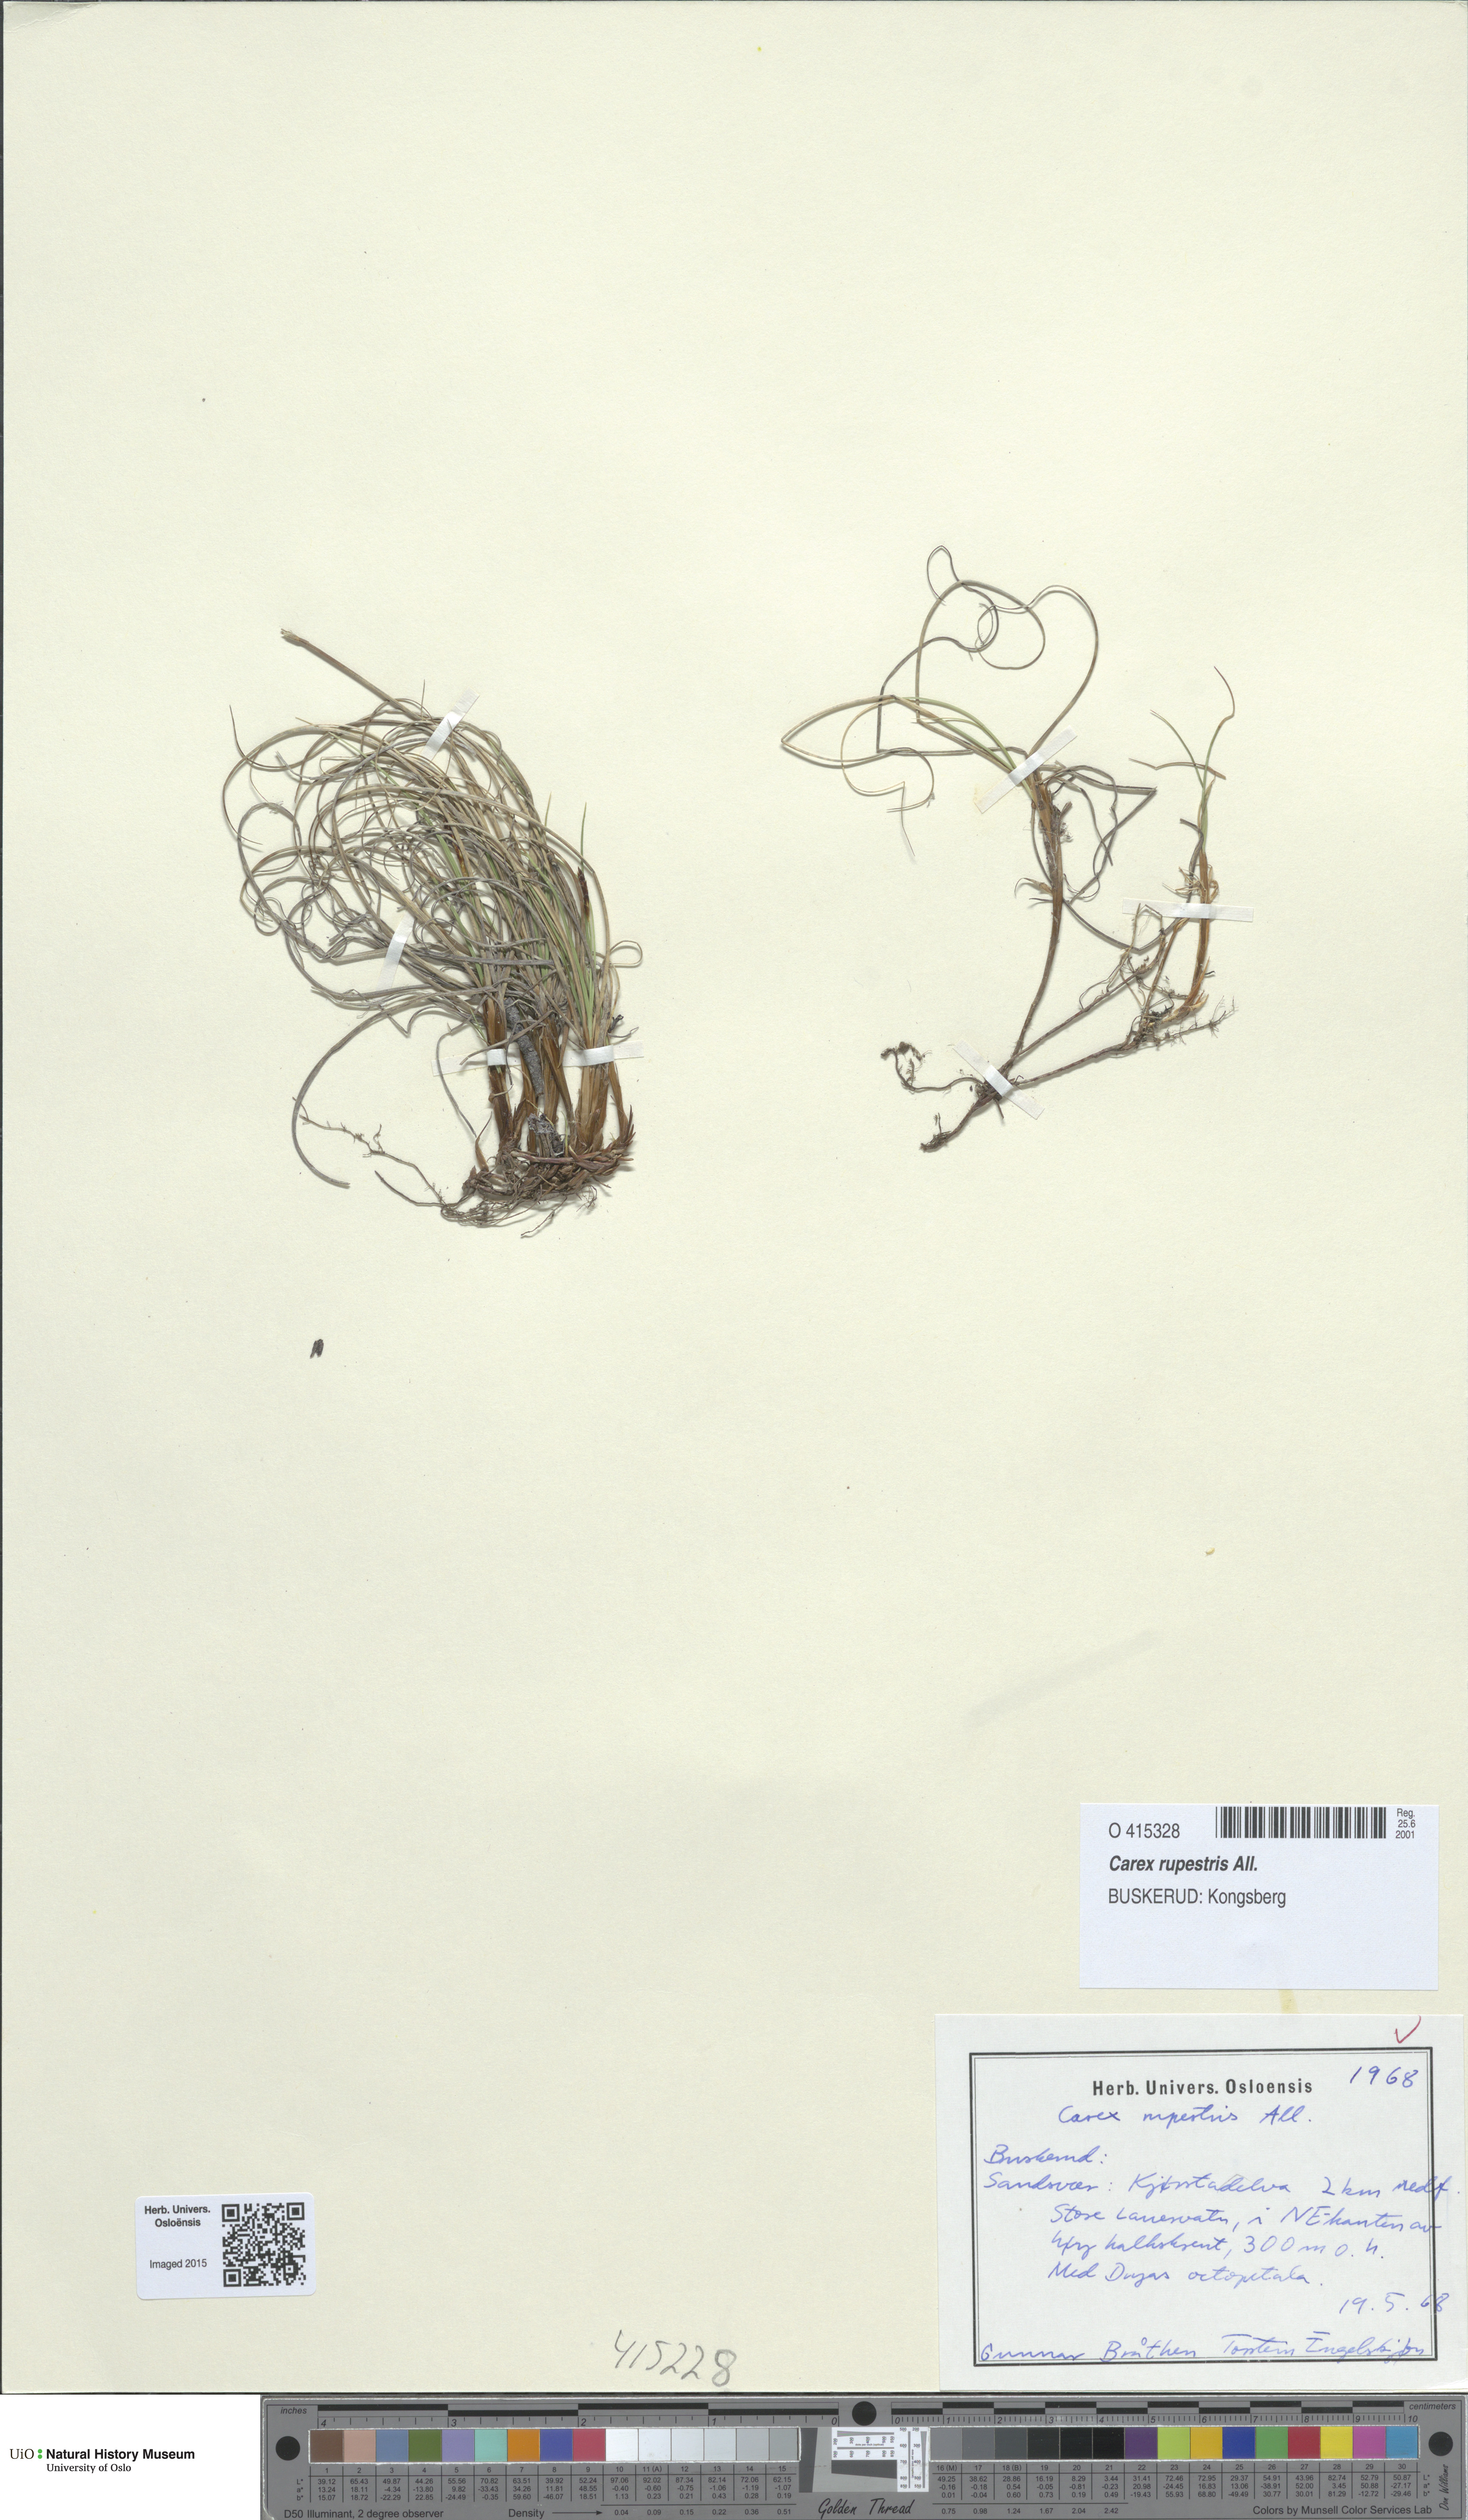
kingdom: Plantae
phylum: Tracheophyta
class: Liliopsida
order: Poales
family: Cyperaceae
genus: Carex
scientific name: Carex rupestris
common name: Rock sedge
